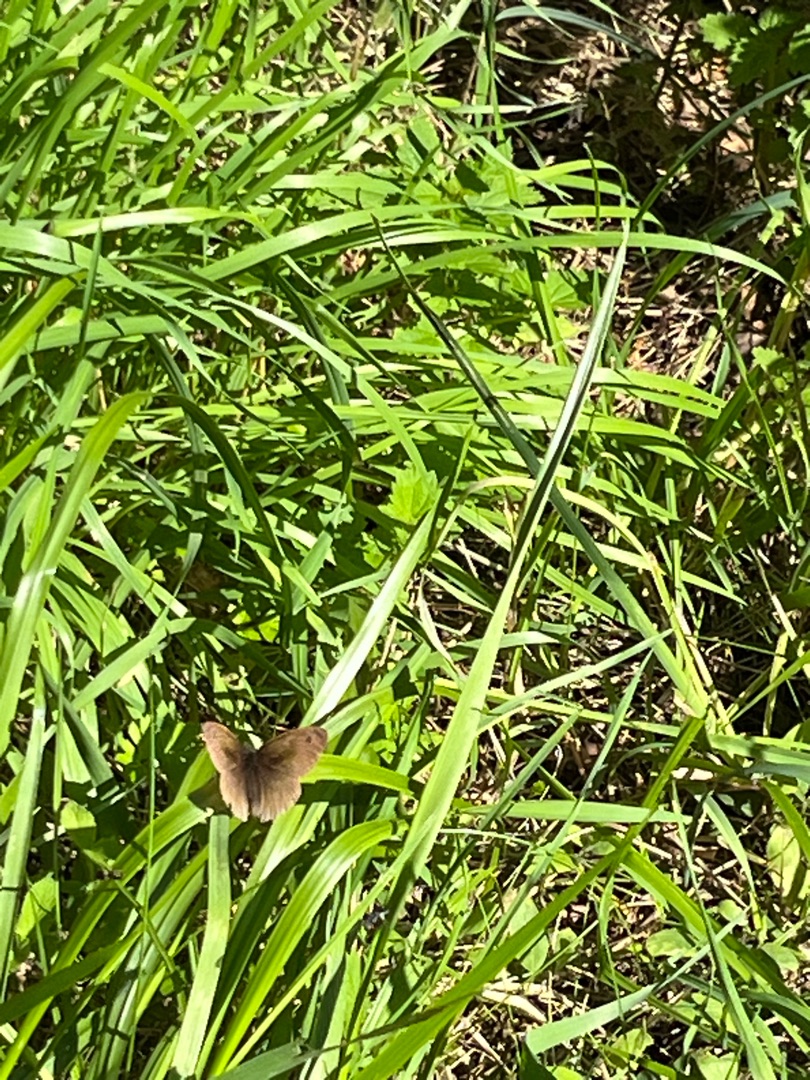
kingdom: Animalia
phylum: Arthropoda
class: Insecta
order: Lepidoptera
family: Nymphalidae
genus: Maniola
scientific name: Maniola jurtina
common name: Græsrandøje
